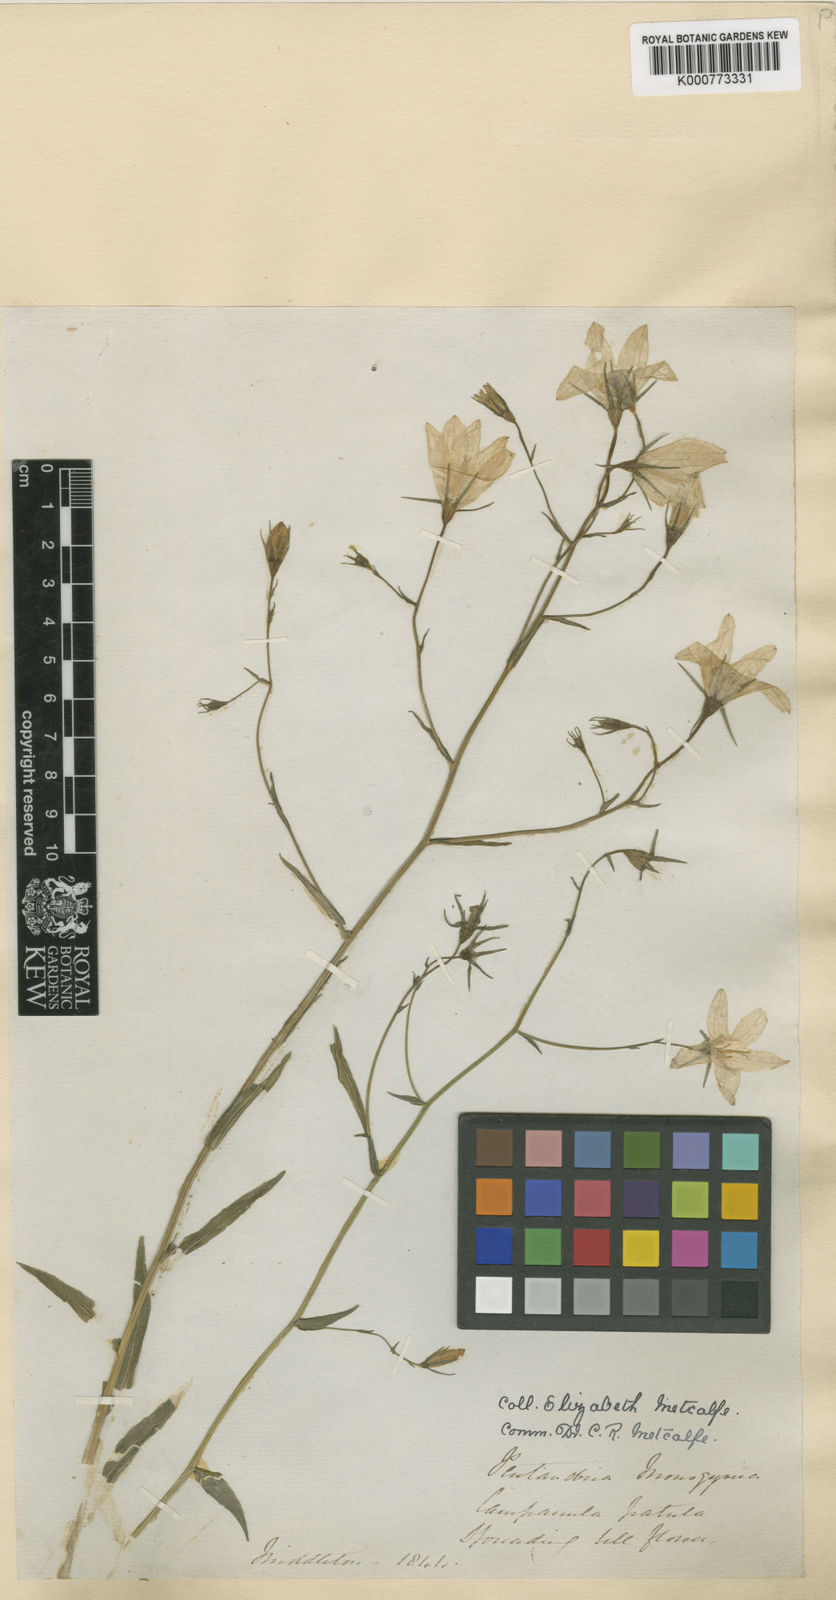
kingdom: Plantae
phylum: Tracheophyta
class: Magnoliopsida
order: Asterales
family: Campanulaceae
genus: Campanula
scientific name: Campanula patula
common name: Spreading bellflower
